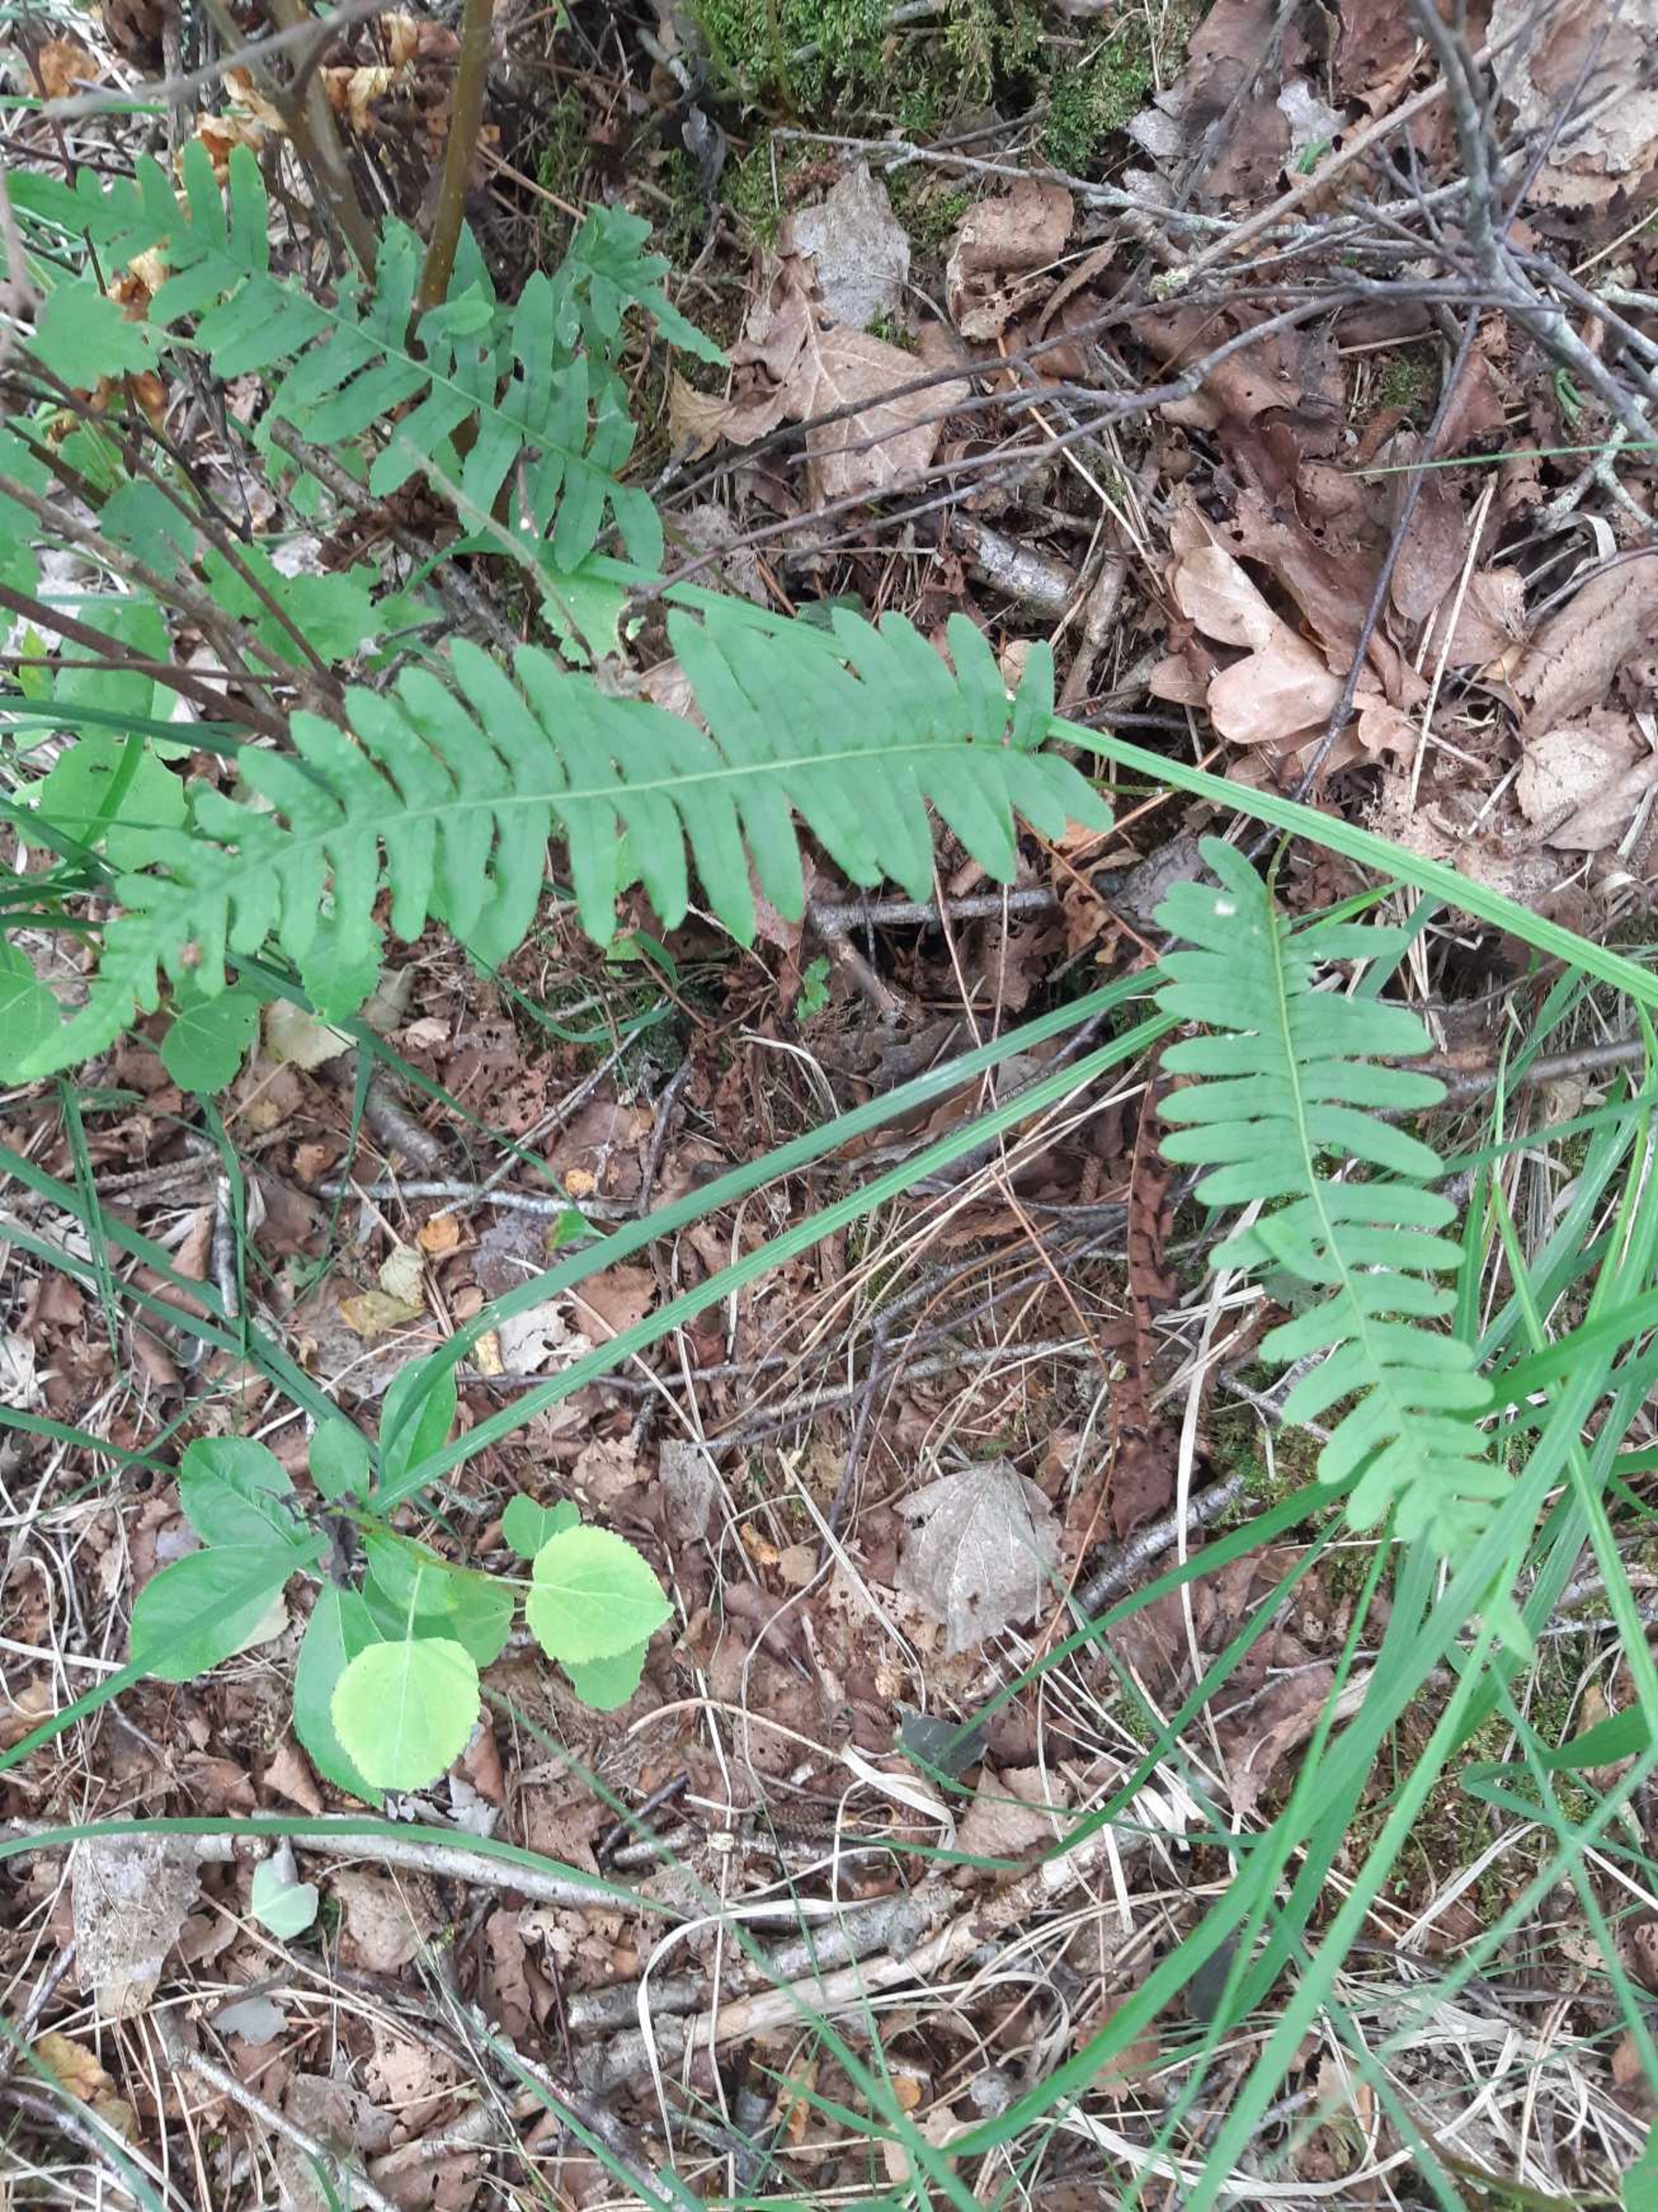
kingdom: Plantae
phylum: Tracheophyta
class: Polypodiopsida
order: Polypodiales
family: Polypodiaceae
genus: Polypodium
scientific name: Polypodium
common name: Engelsødslægten
